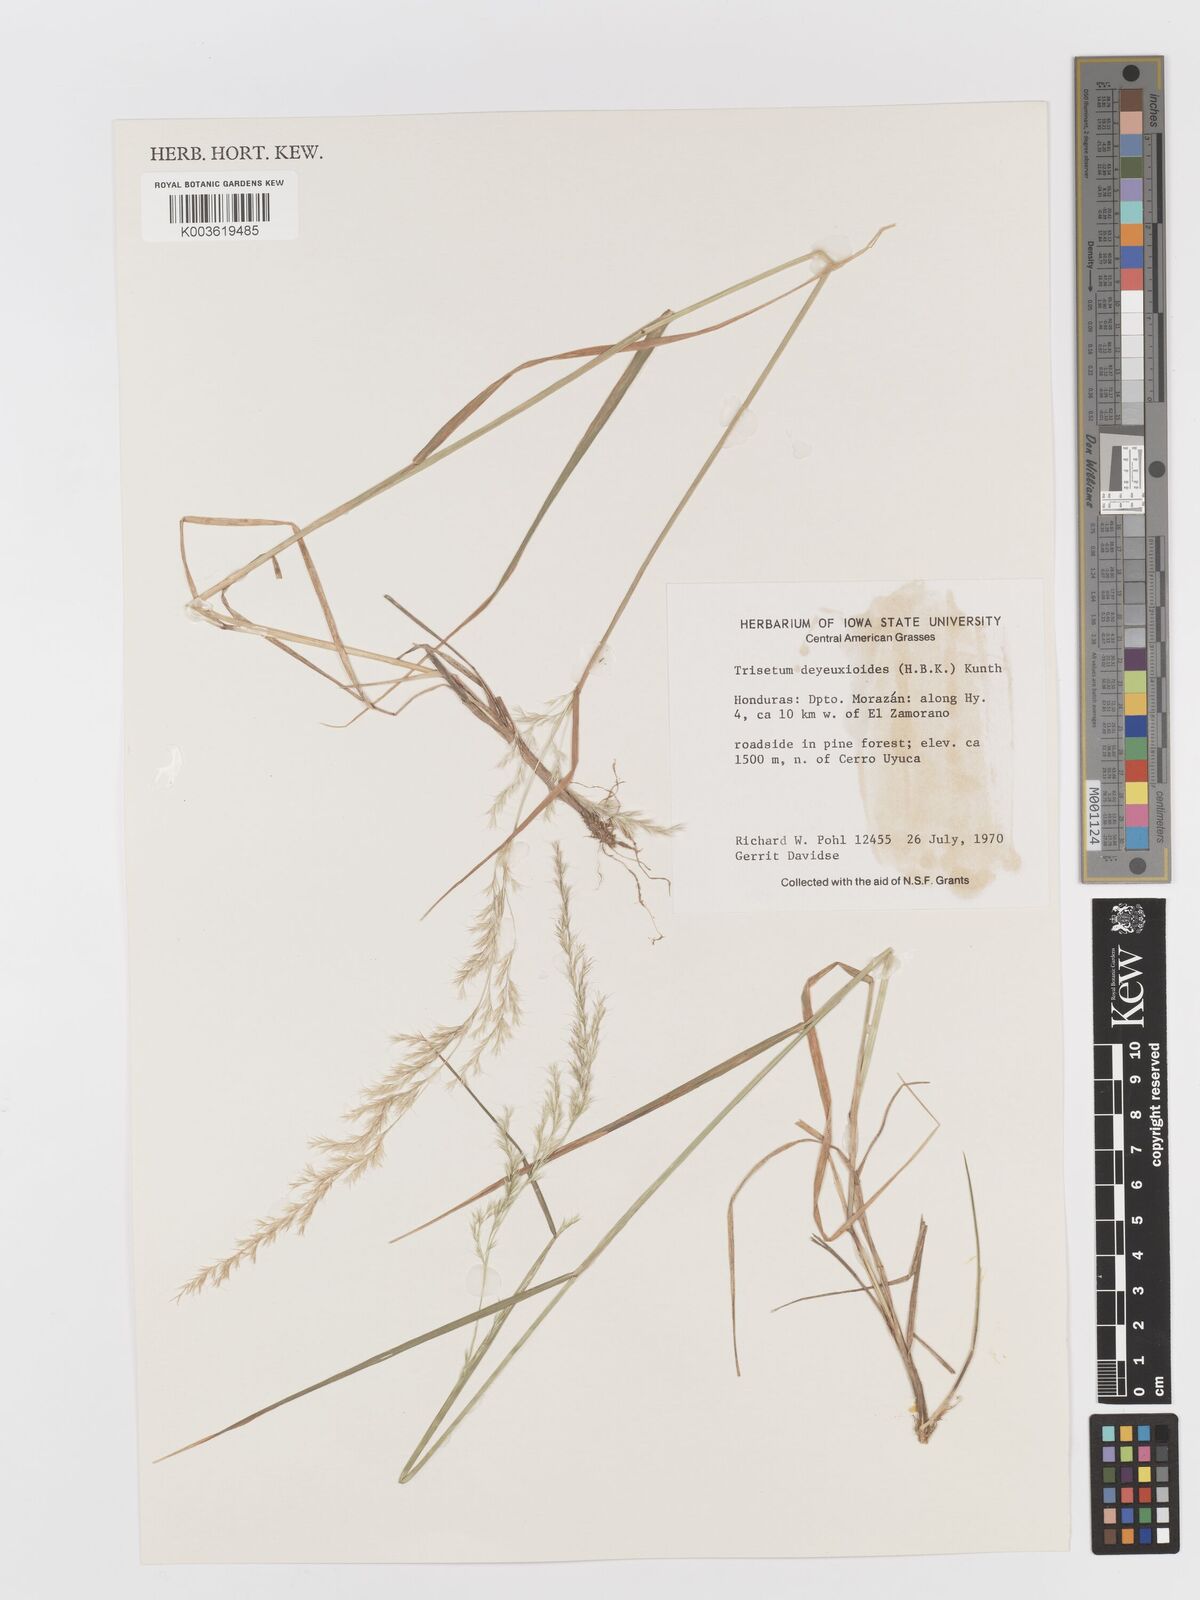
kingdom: Plantae
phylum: Tracheophyta
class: Liliopsida
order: Poales
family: Poaceae
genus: Peyritschia
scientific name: Peyritschia deyeuxioides
